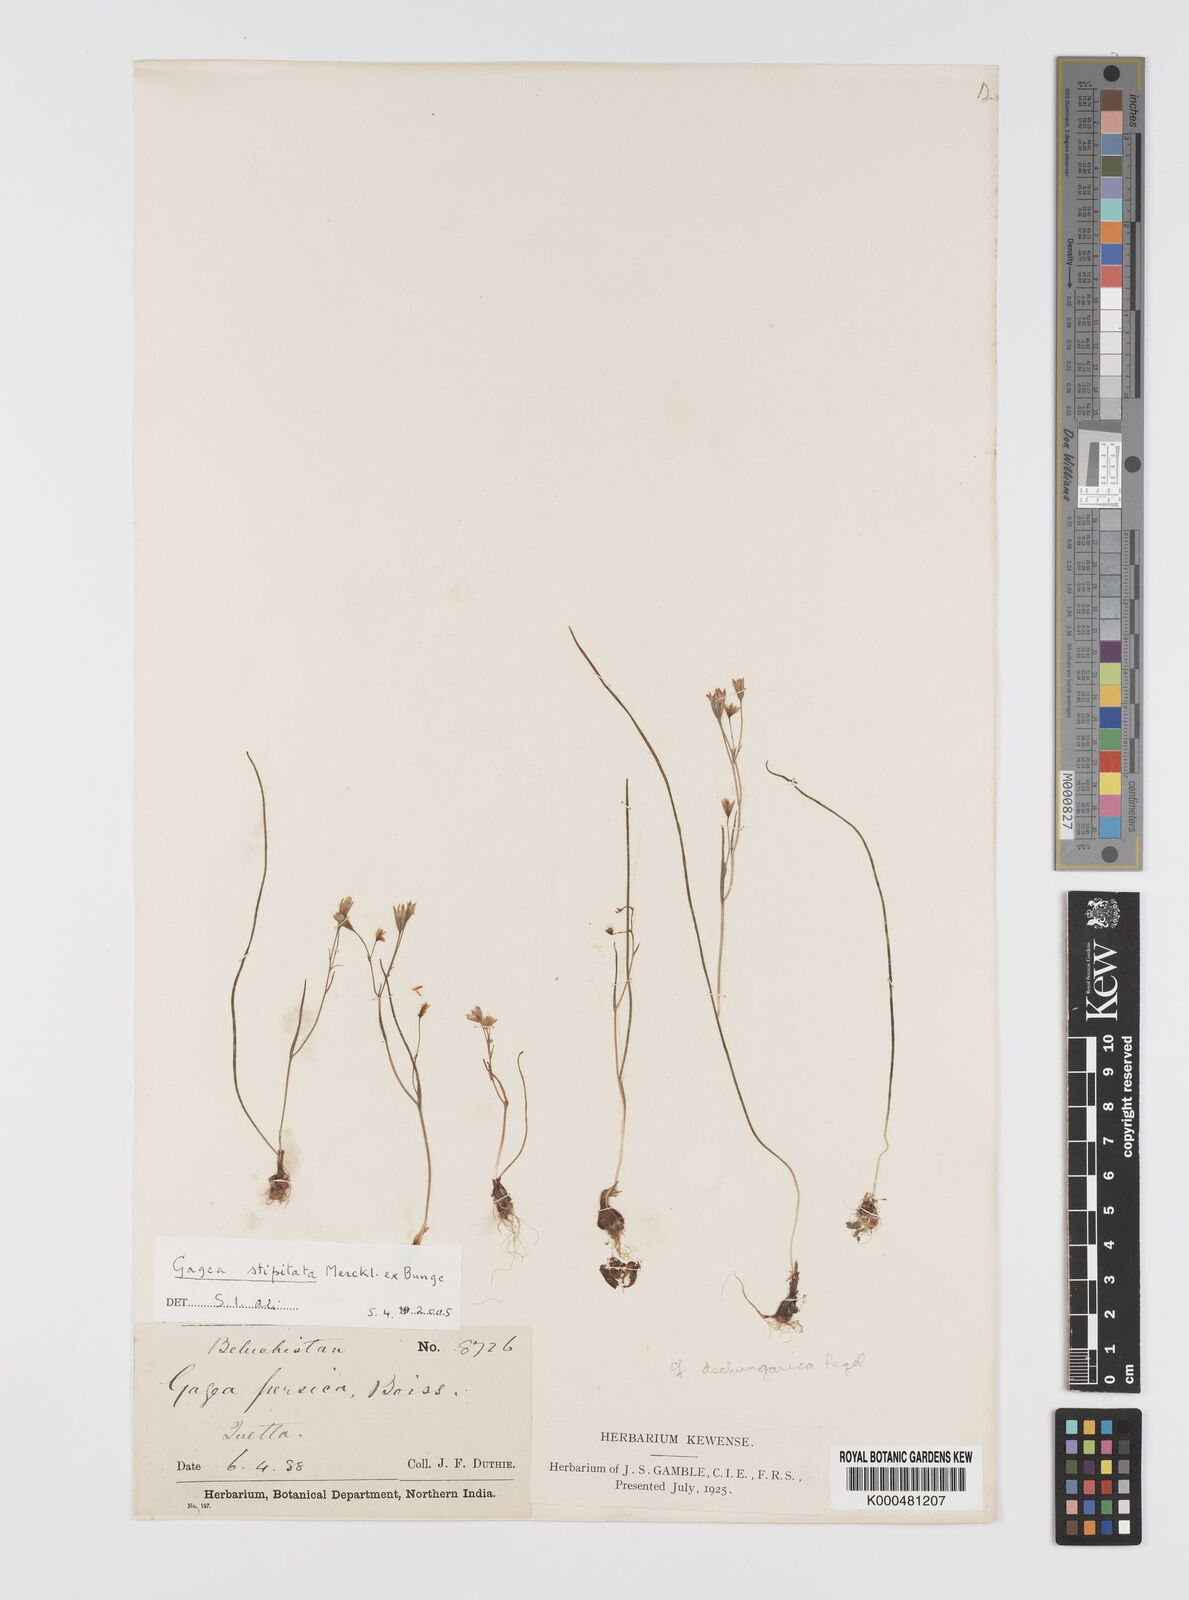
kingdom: Plantae
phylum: Tracheophyta
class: Liliopsida
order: Liliales
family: Liliaceae
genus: Gagea
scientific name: Gagea kunawurensis
